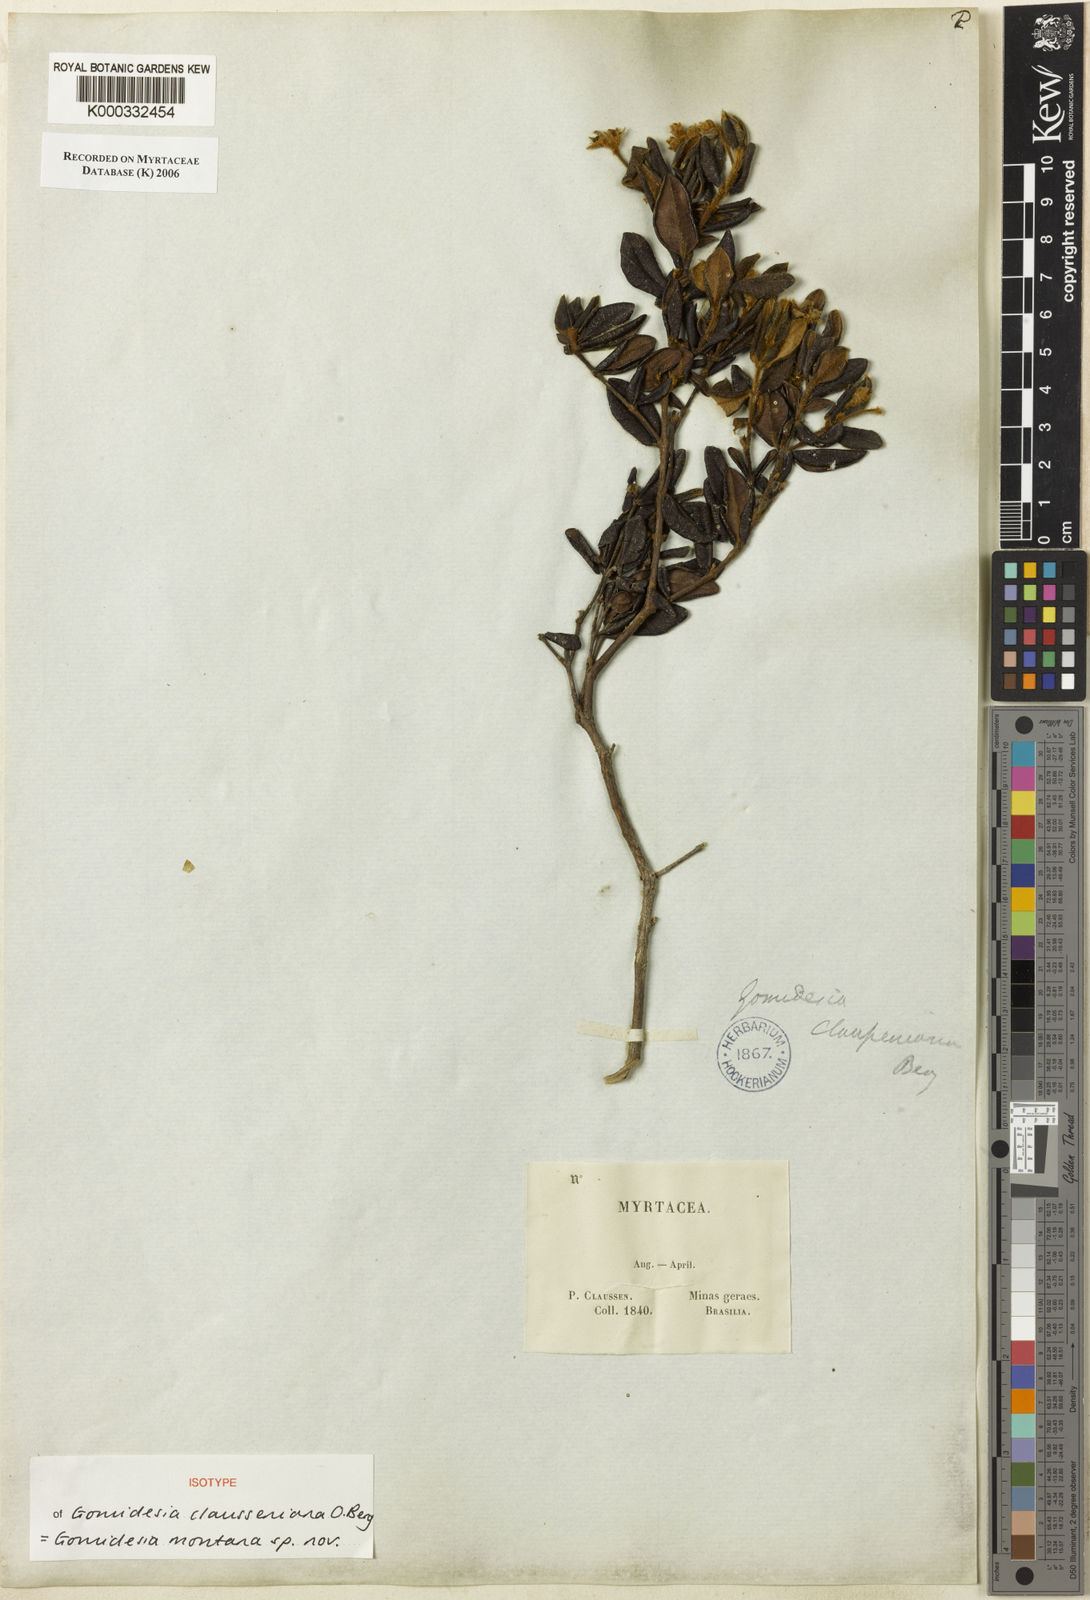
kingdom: Plantae
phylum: Tracheophyta
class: Magnoliopsida
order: Myrtales
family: Myrtaceae
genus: Myrcia
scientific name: Myrcia montana
